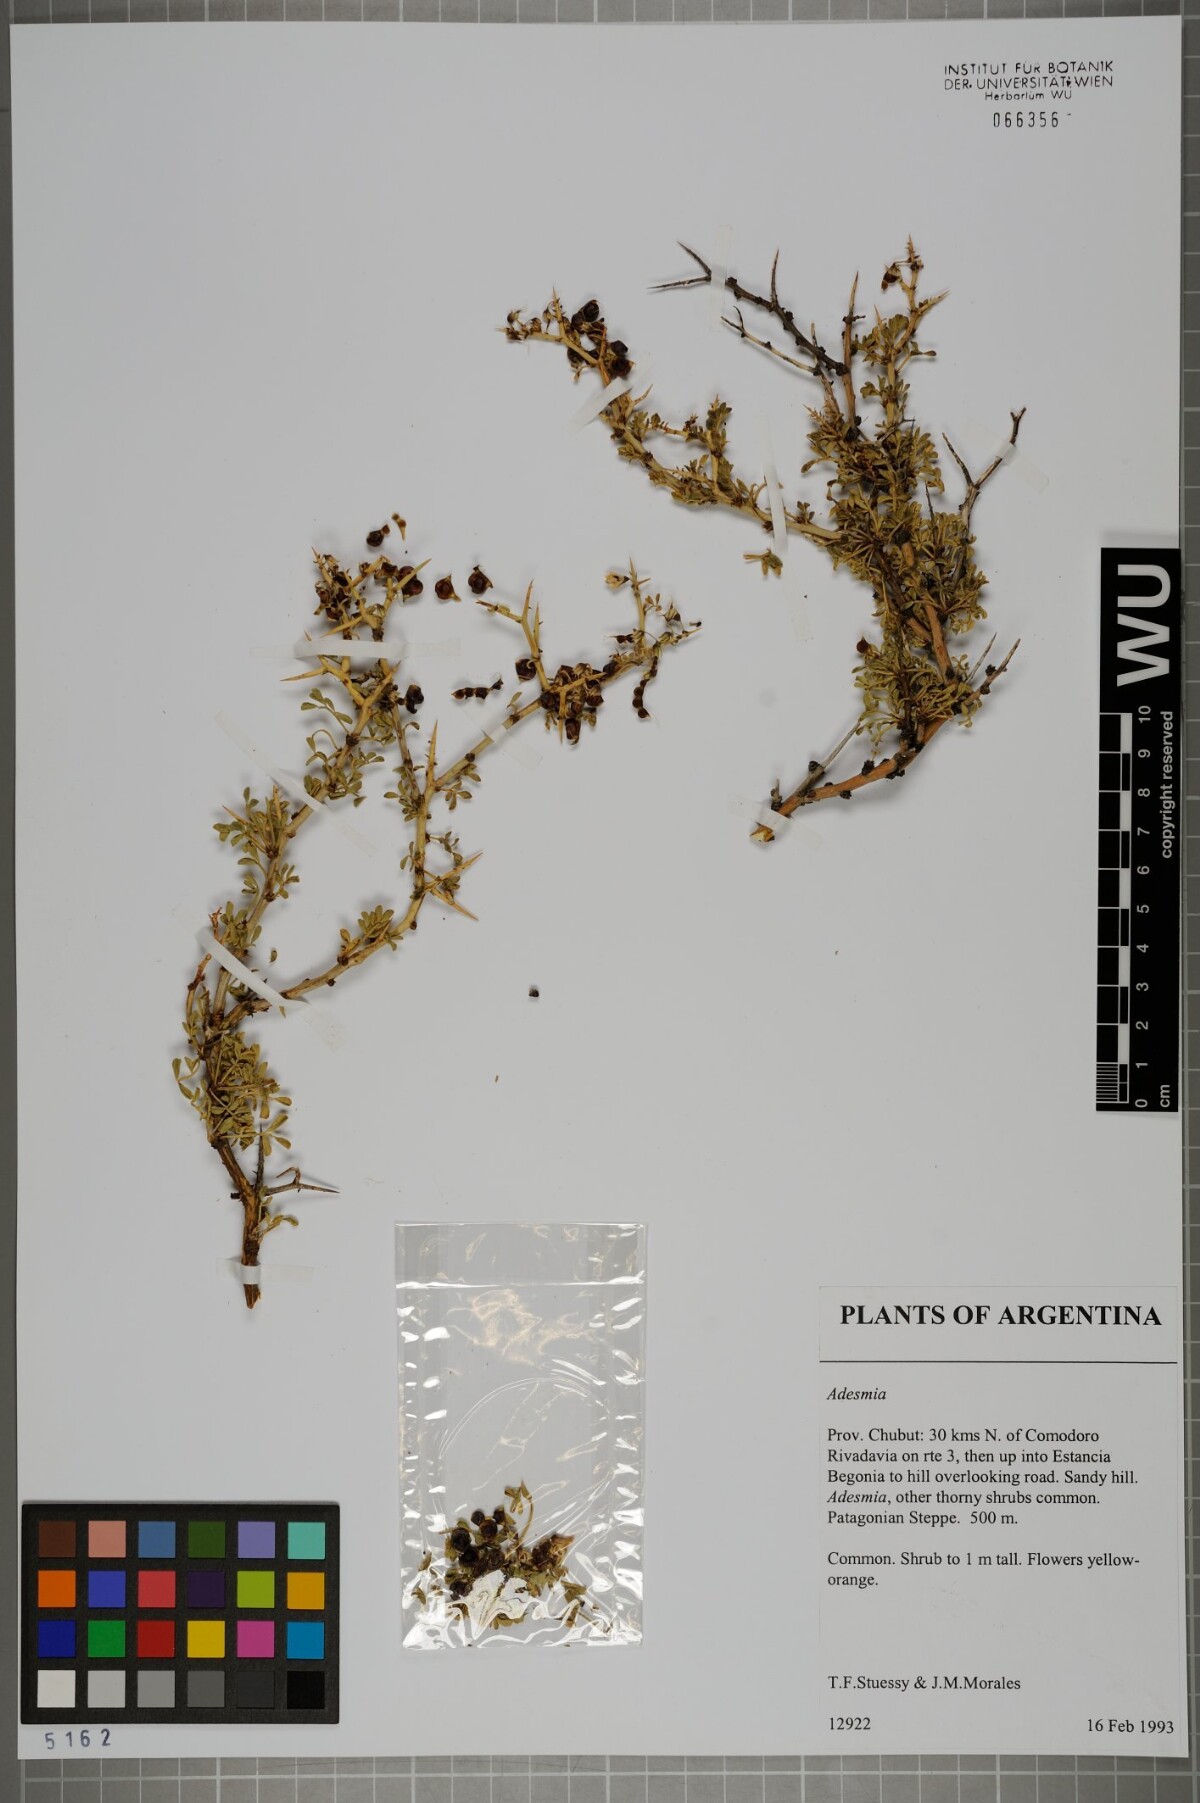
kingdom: Plantae
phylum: Tracheophyta
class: Magnoliopsida
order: Fabales
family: Fabaceae
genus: Adesmia
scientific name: Adesmia
